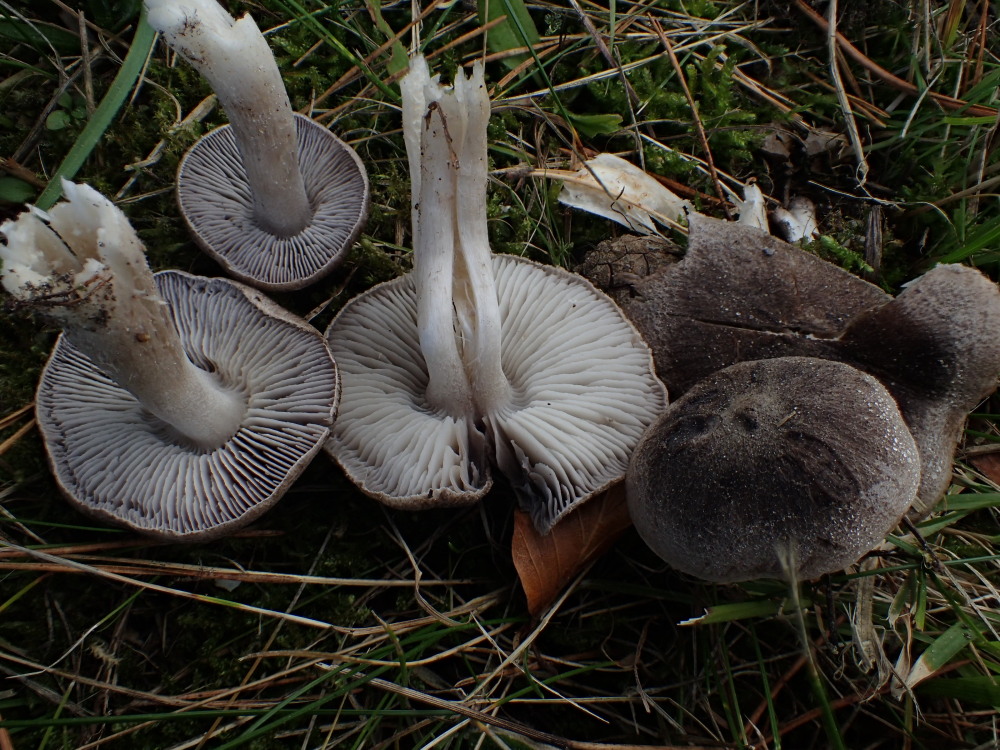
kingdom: Fungi
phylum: Basidiomycota
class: Agaricomycetes
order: Agaricales
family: Tricholomataceae
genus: Tricholoma
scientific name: Tricholoma terreum
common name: jordfarvet ridderhat
